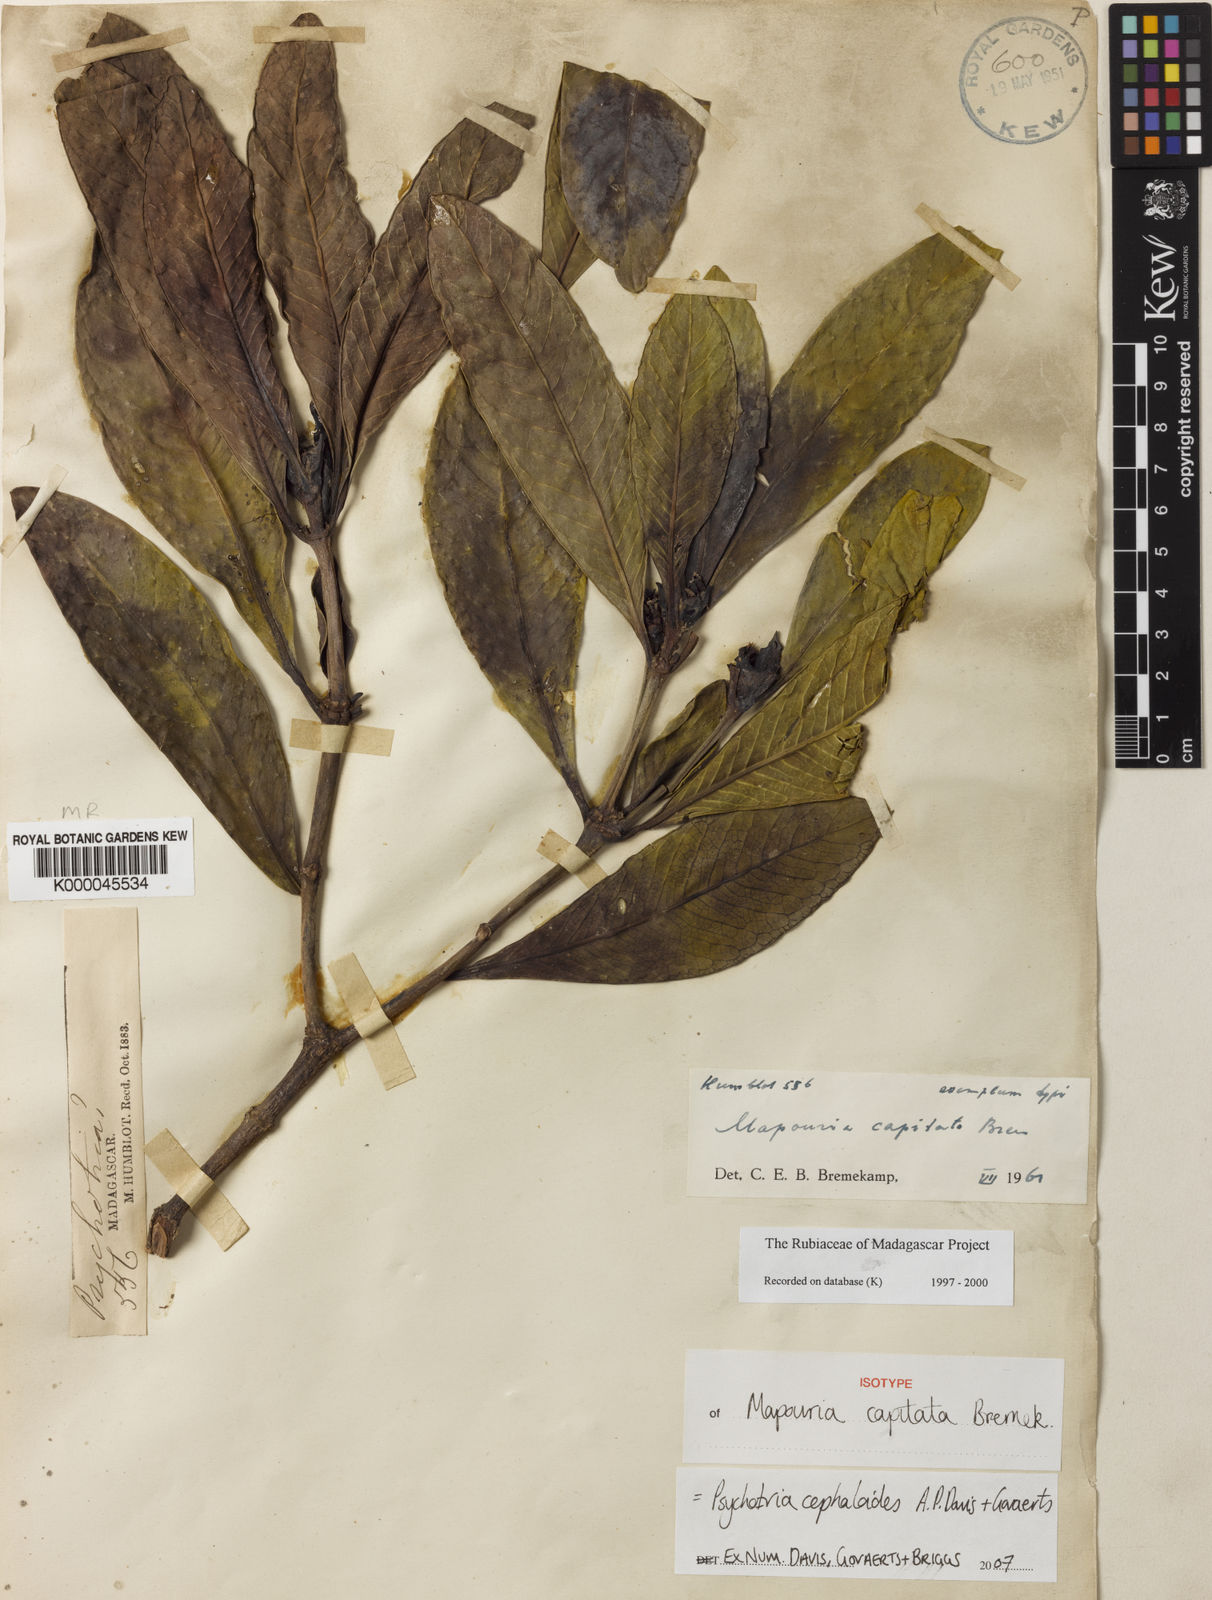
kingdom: Plantae
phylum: Tracheophyta
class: Magnoliopsida
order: Gentianales
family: Rubiaceae
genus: Psychotria
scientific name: Psychotria cephaloides
